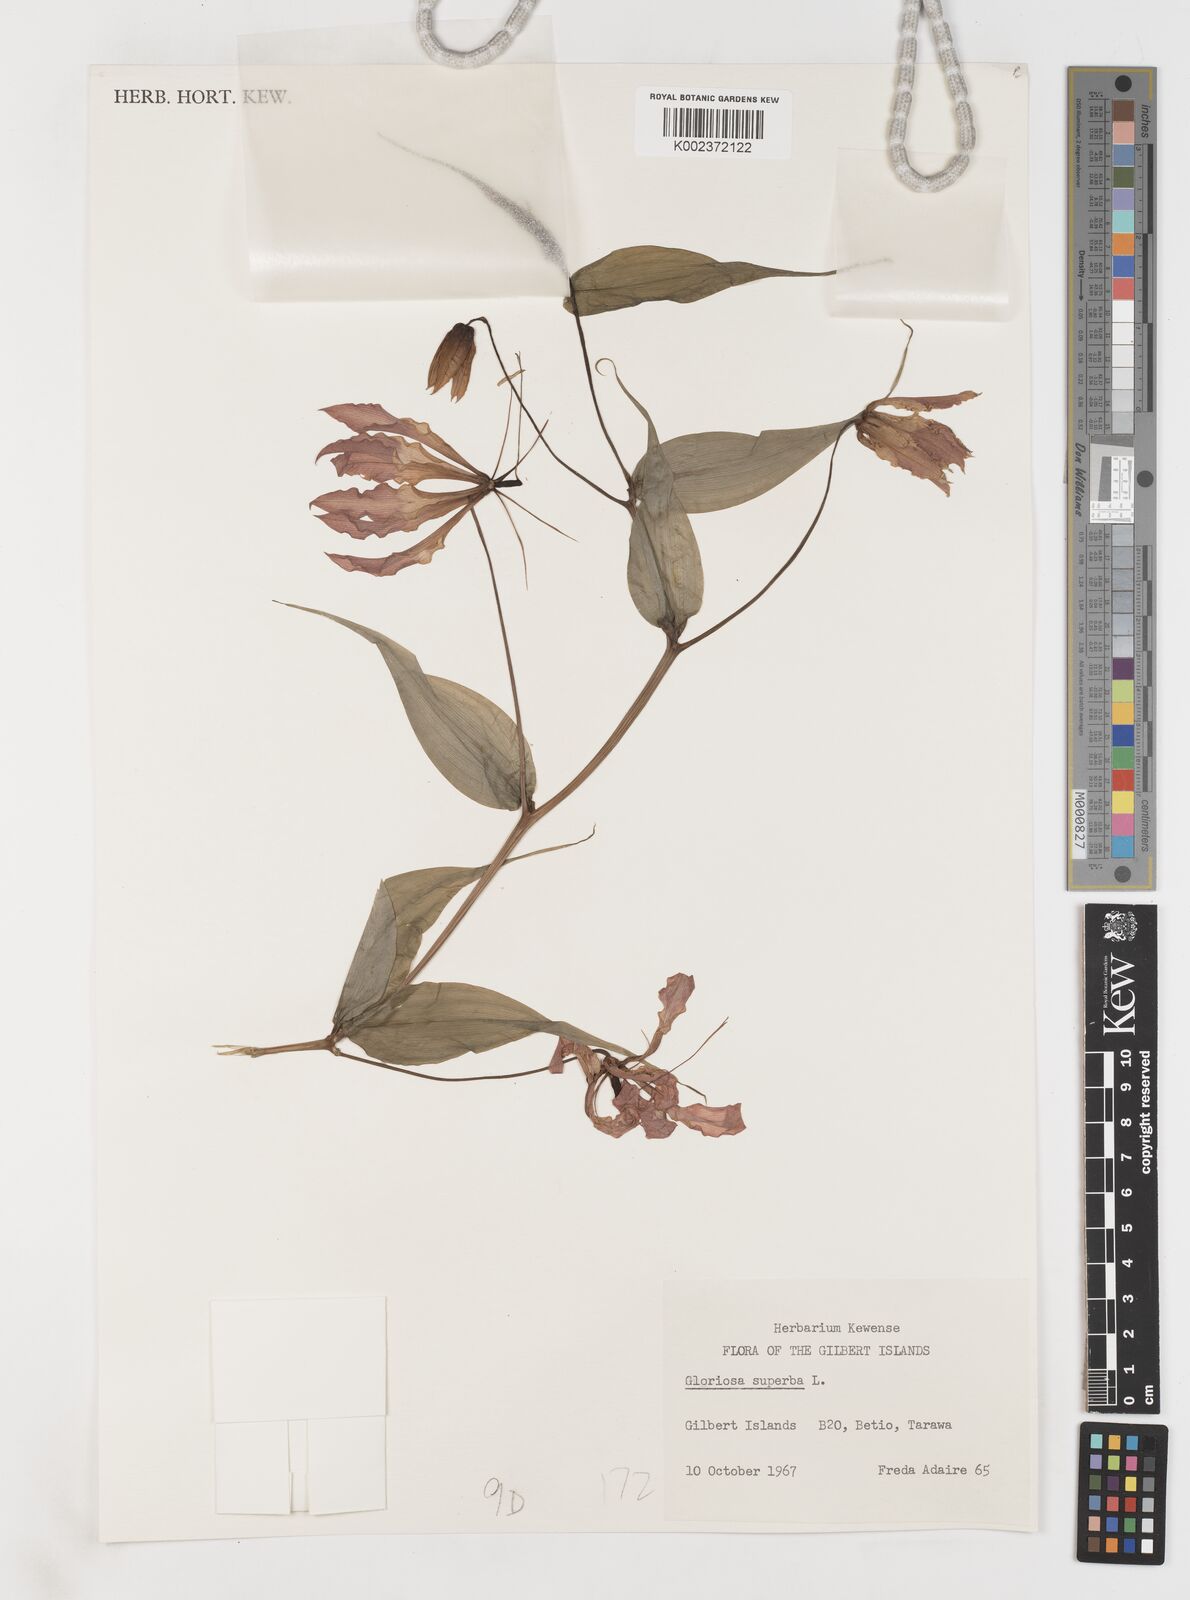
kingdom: Plantae
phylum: Tracheophyta
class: Liliopsida
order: Liliales
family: Colchicaceae
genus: Gloriosa
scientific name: Gloriosa superba
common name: Flame lily
